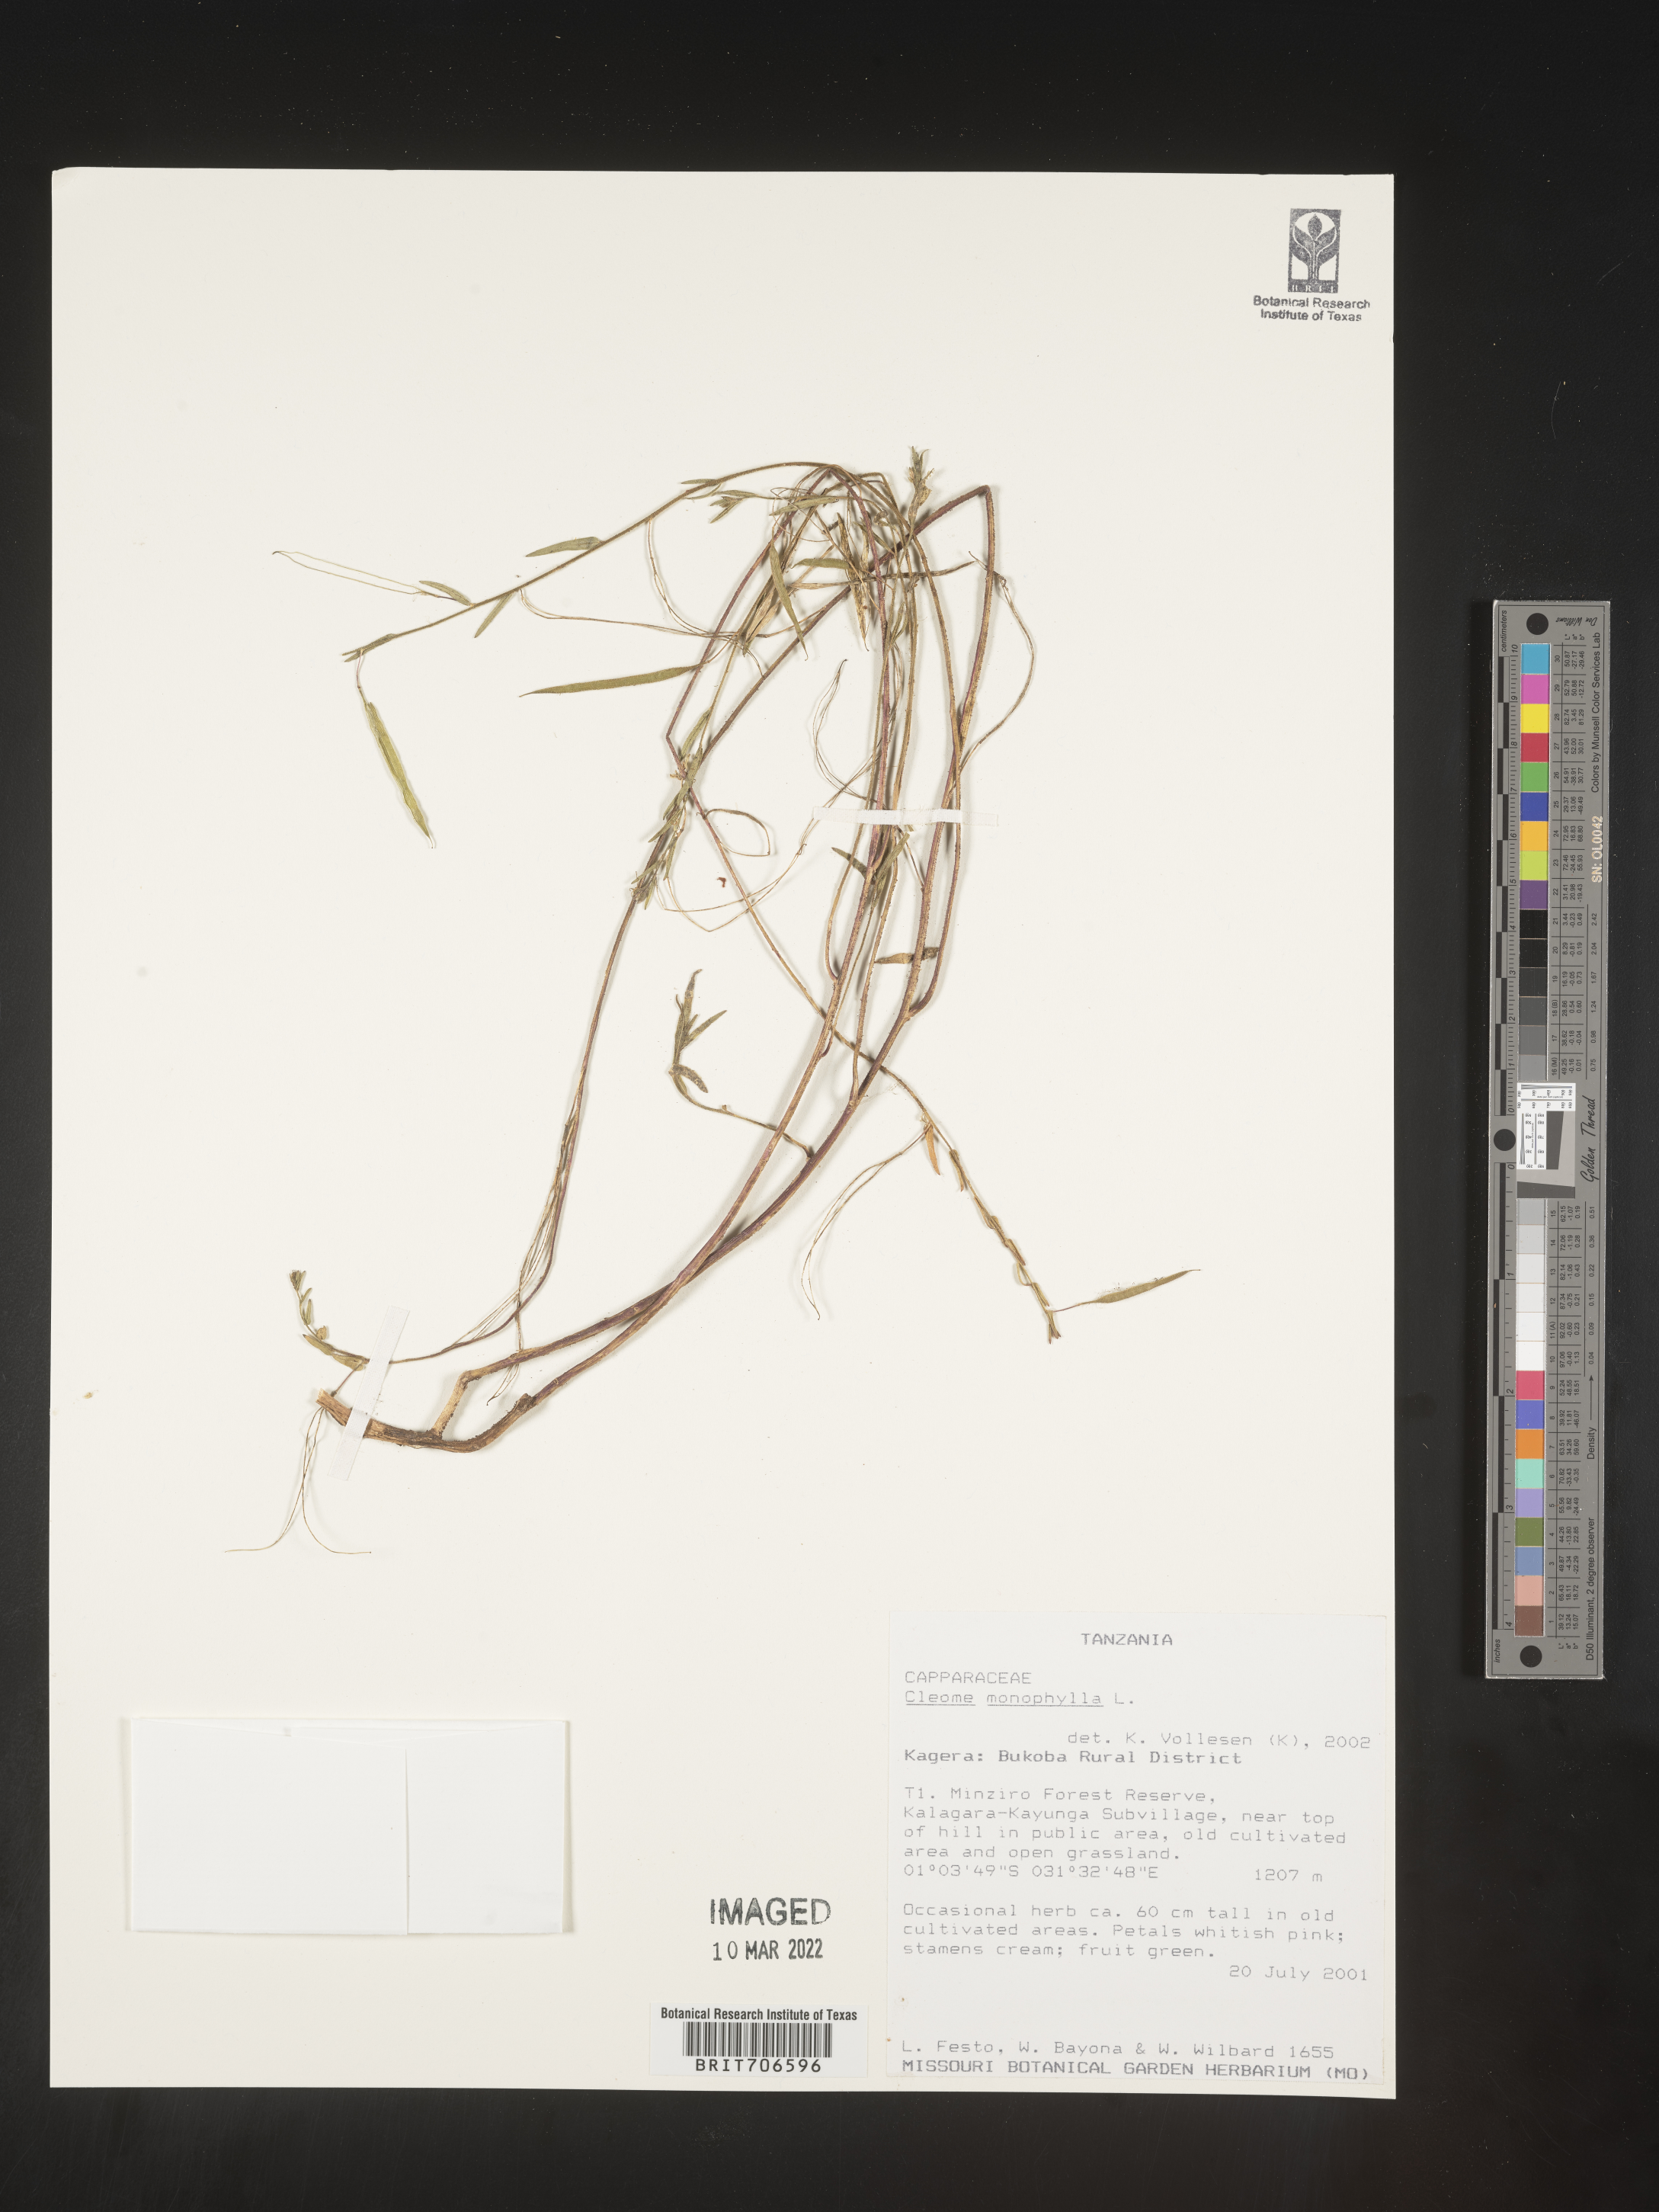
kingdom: Plantae
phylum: Tracheophyta
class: Magnoliopsida
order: Brassicales
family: Cleomaceae
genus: Cleome
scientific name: Cleome
